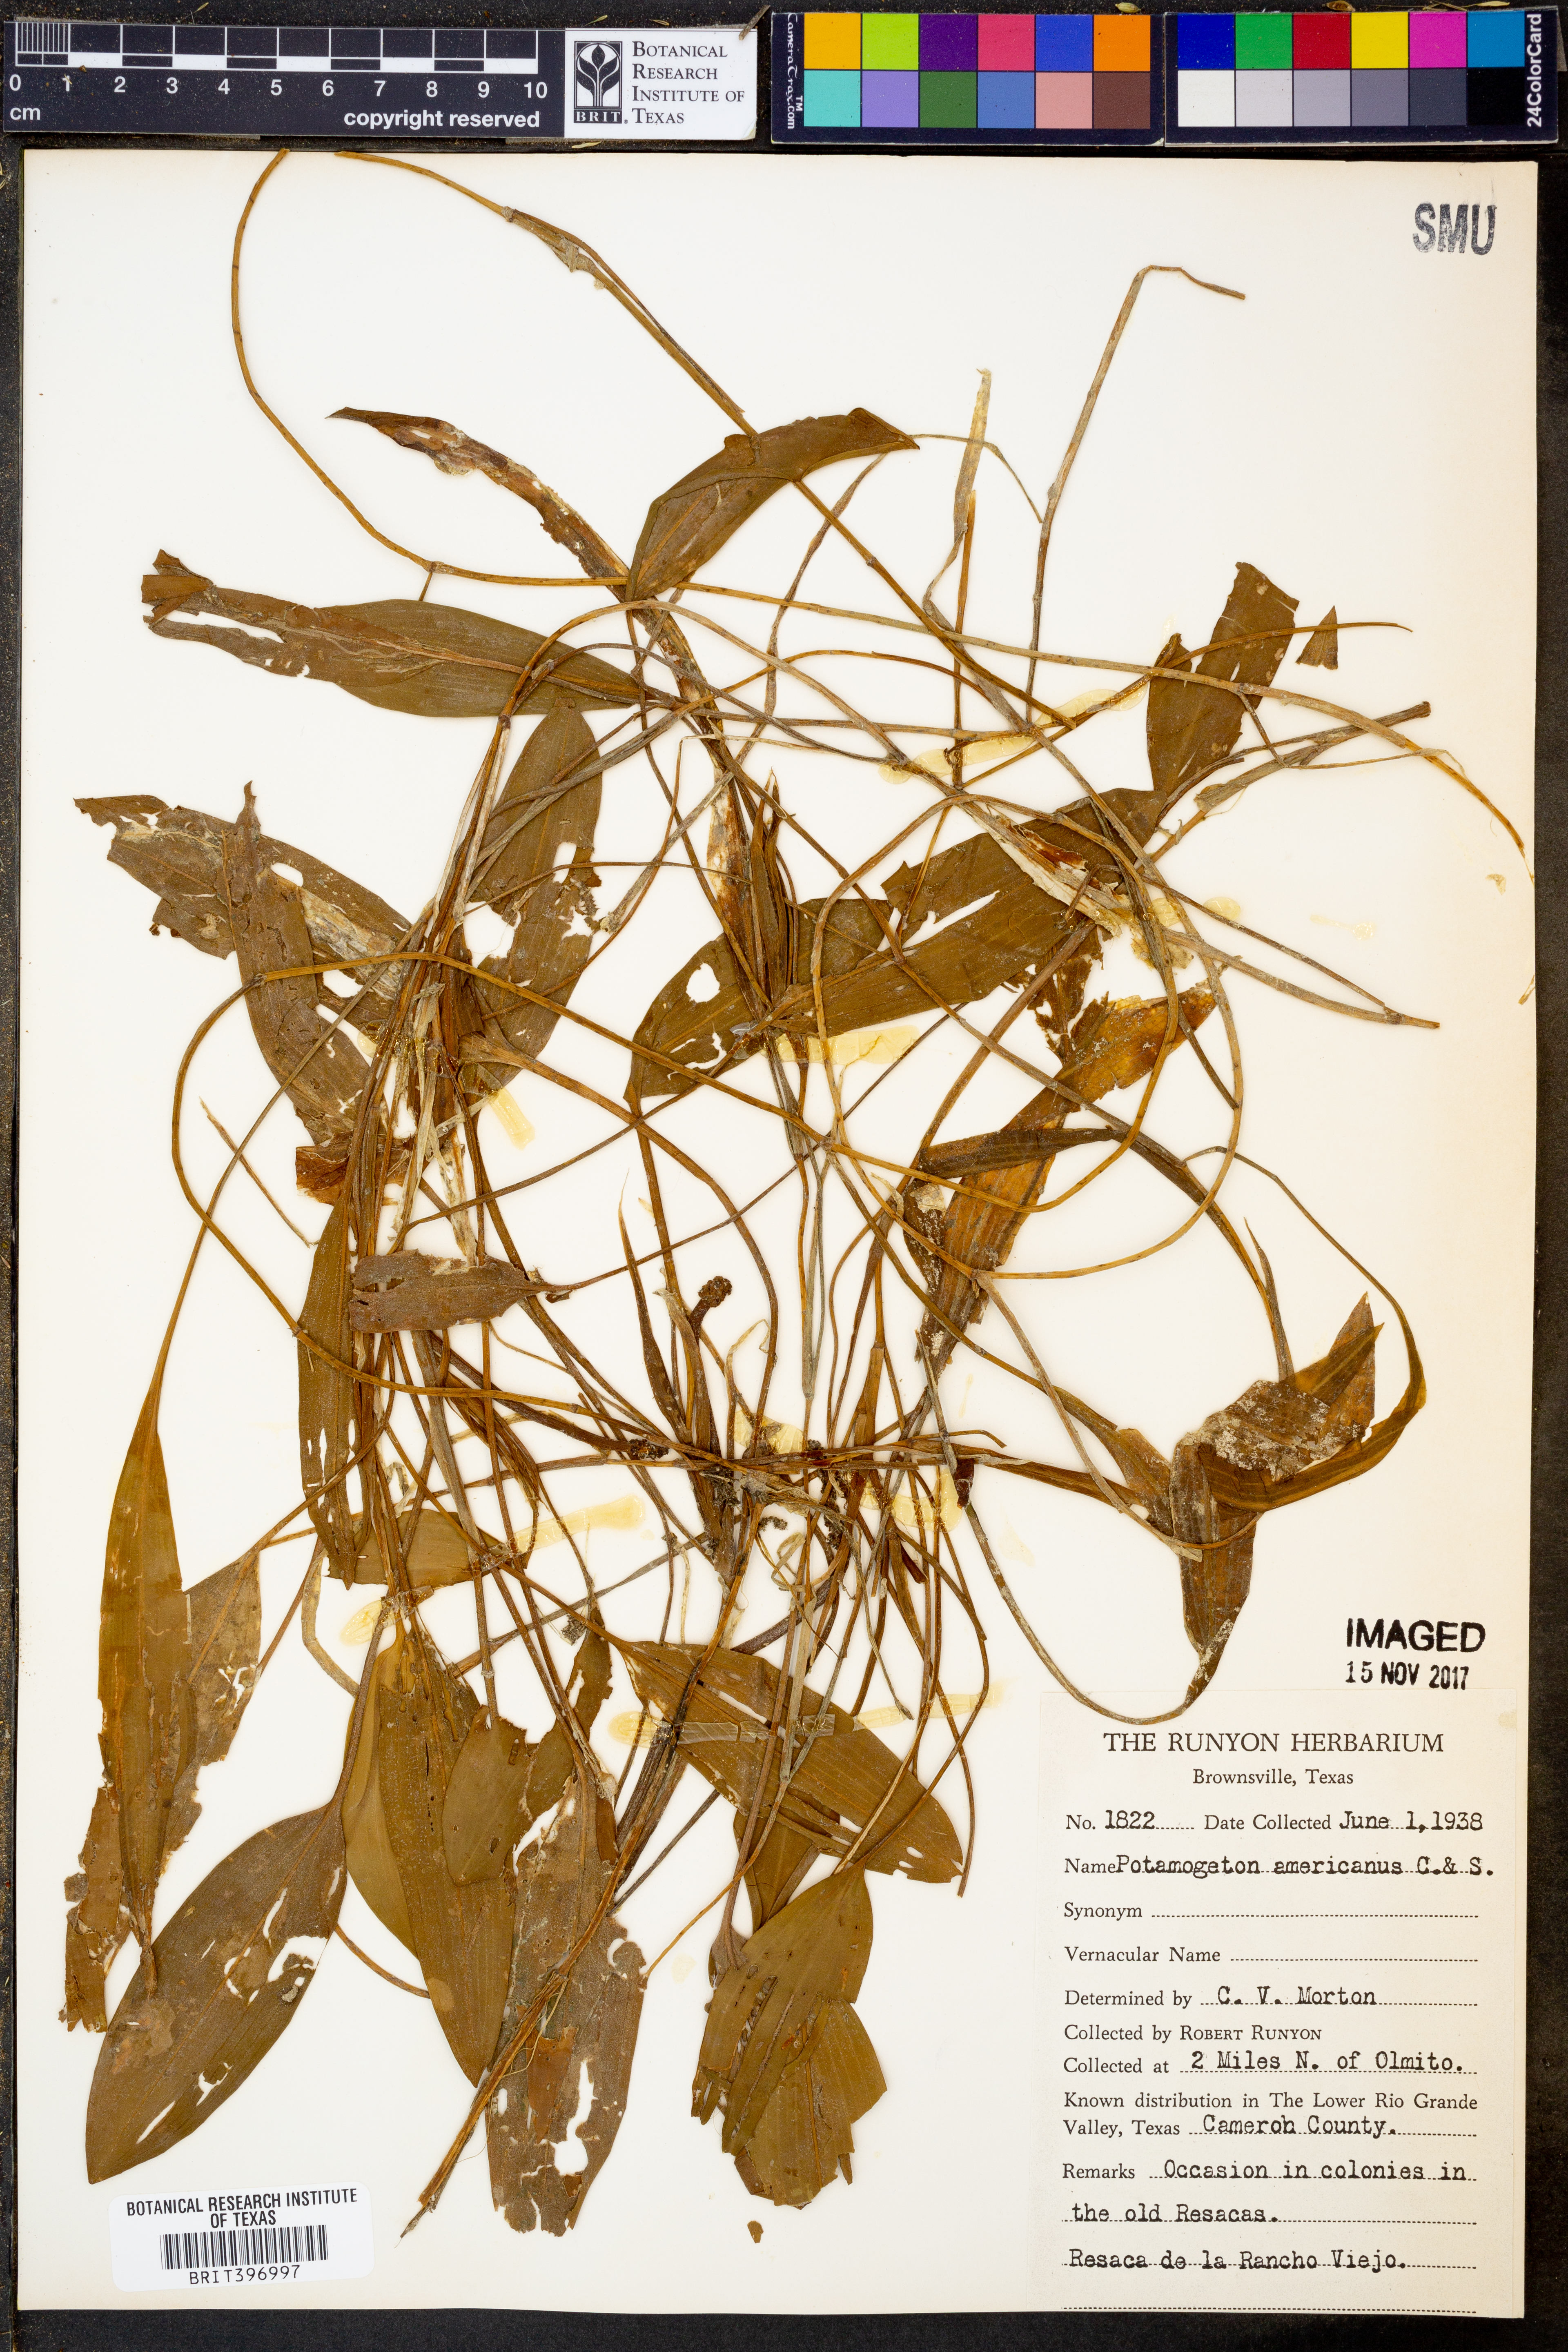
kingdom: Plantae
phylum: Tracheophyta
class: Liliopsida
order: Alismatales
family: Potamogetonaceae
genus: Potamogeton
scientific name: Potamogeton nodosus
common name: Loddon pondweed
